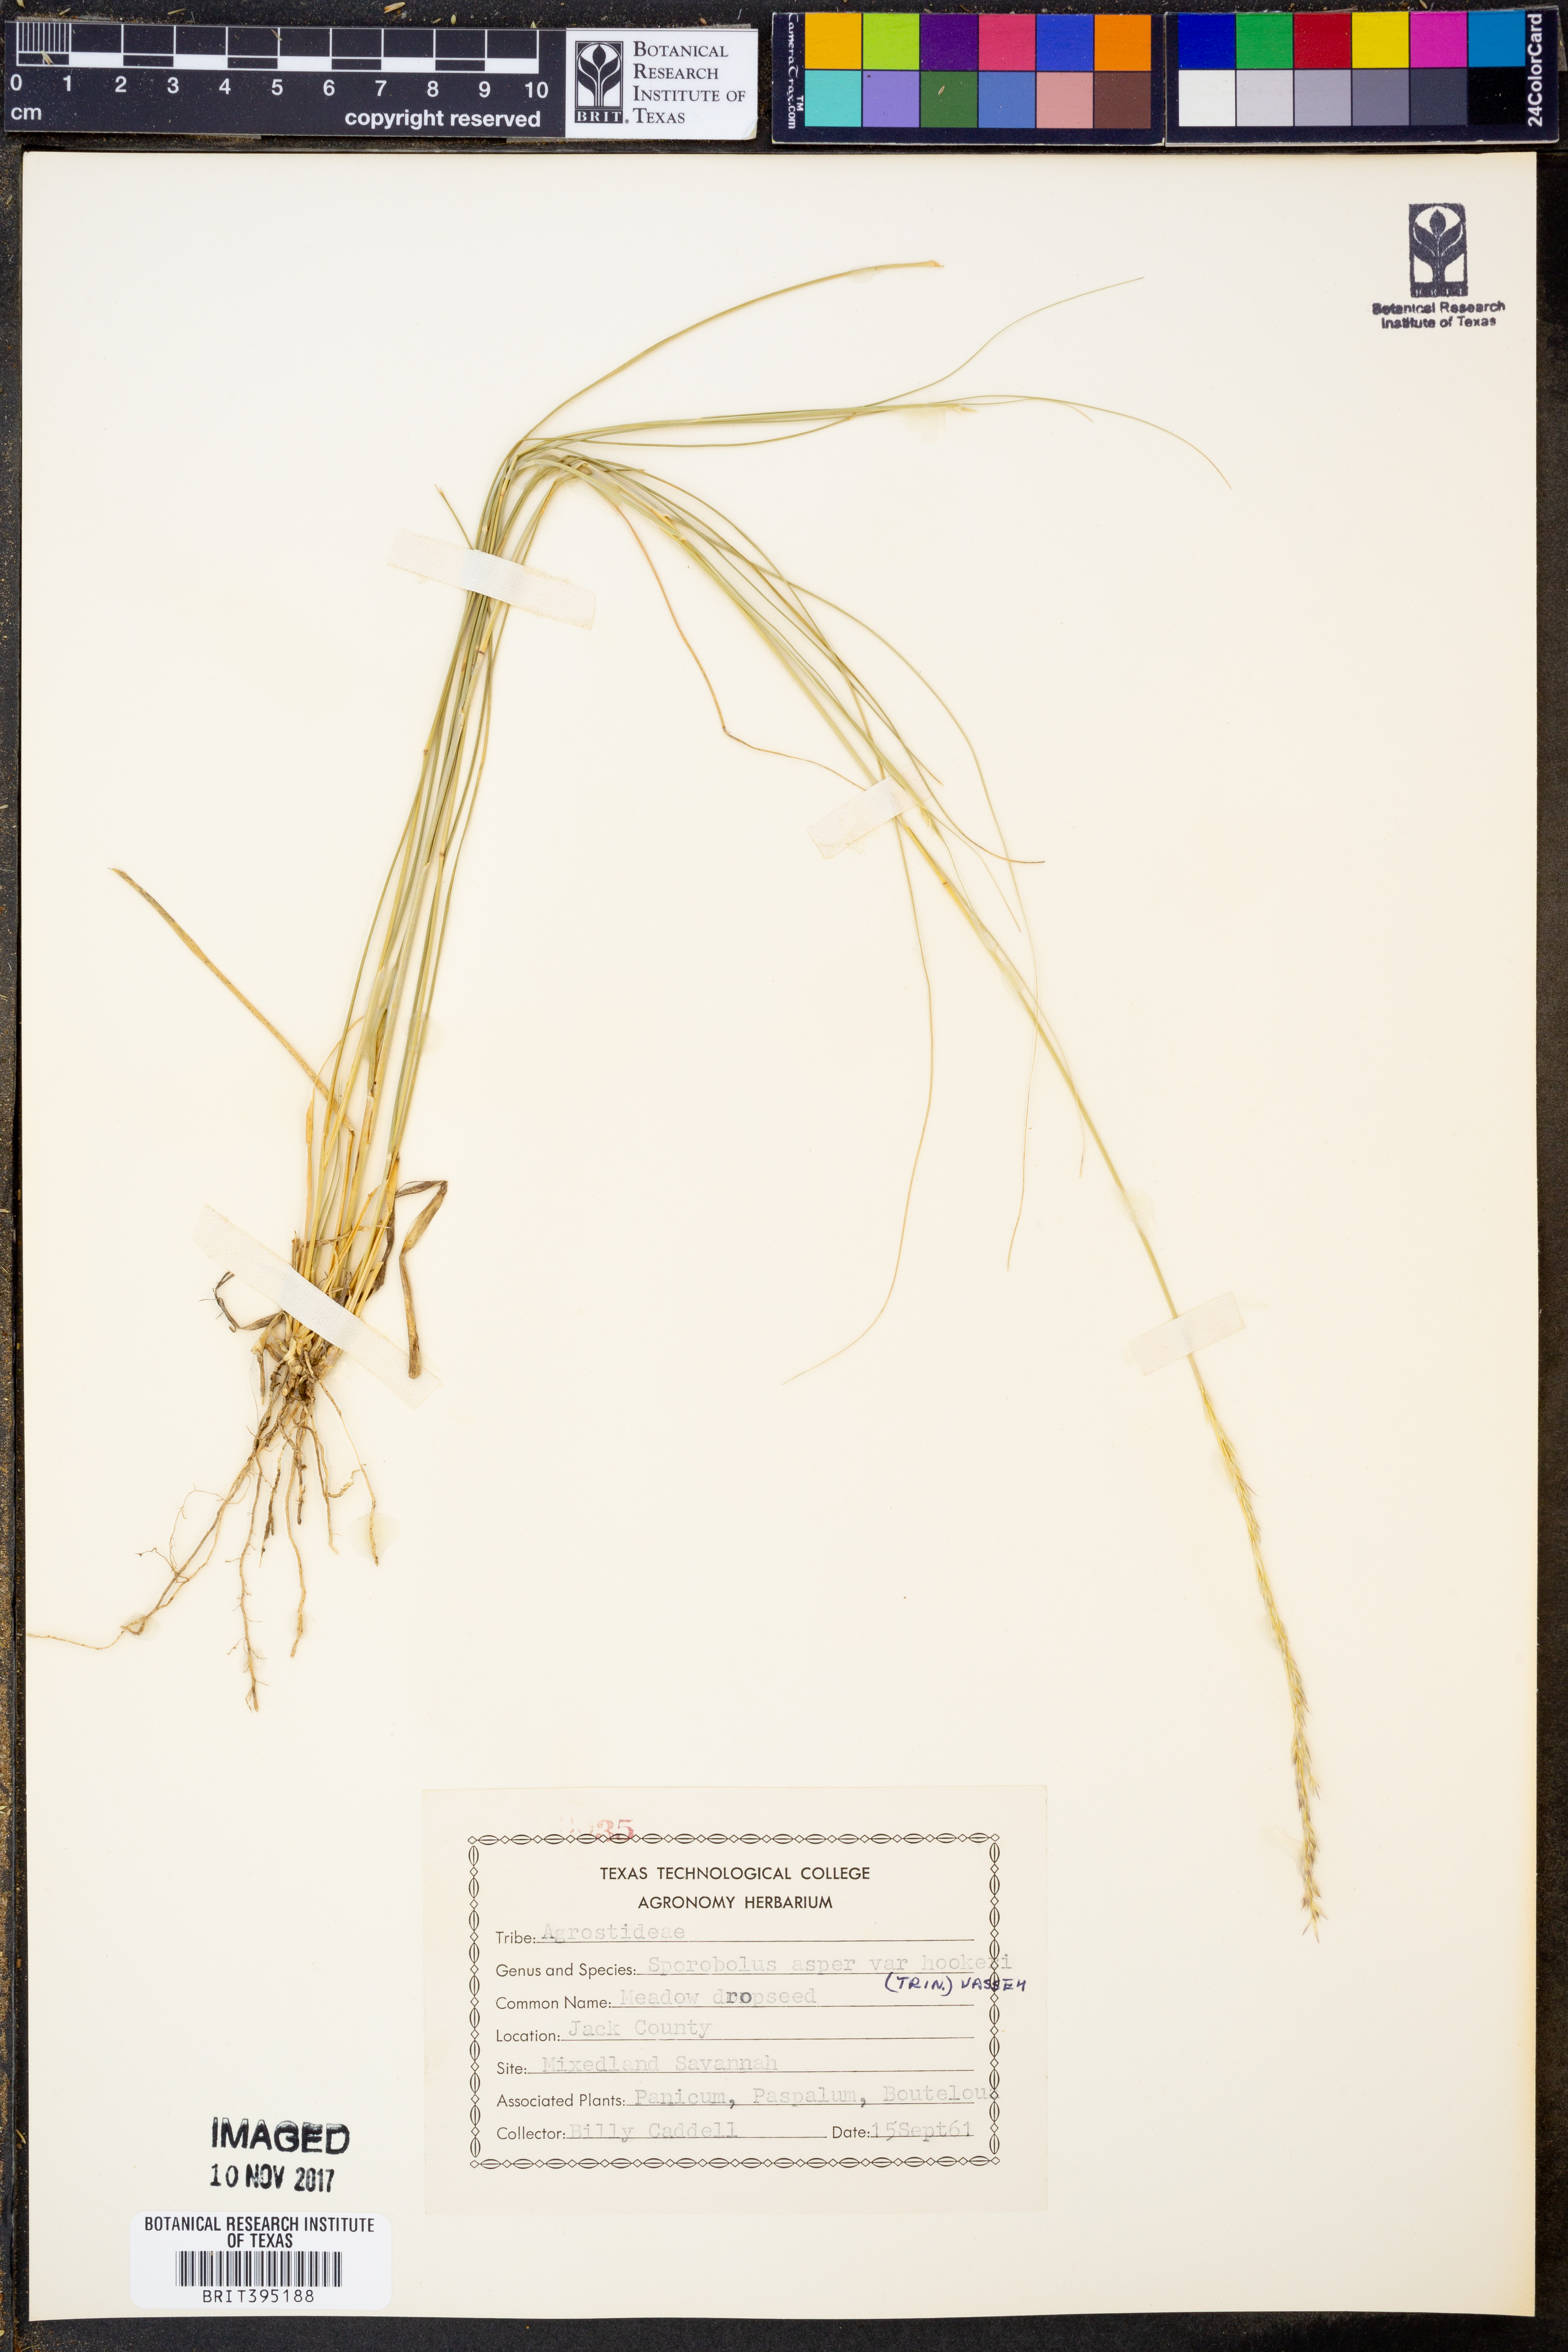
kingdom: Plantae
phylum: Tracheophyta
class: Liliopsida
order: Poales
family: Poaceae
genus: Sporobolus
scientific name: Sporobolus compositus
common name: Rough dropseed
